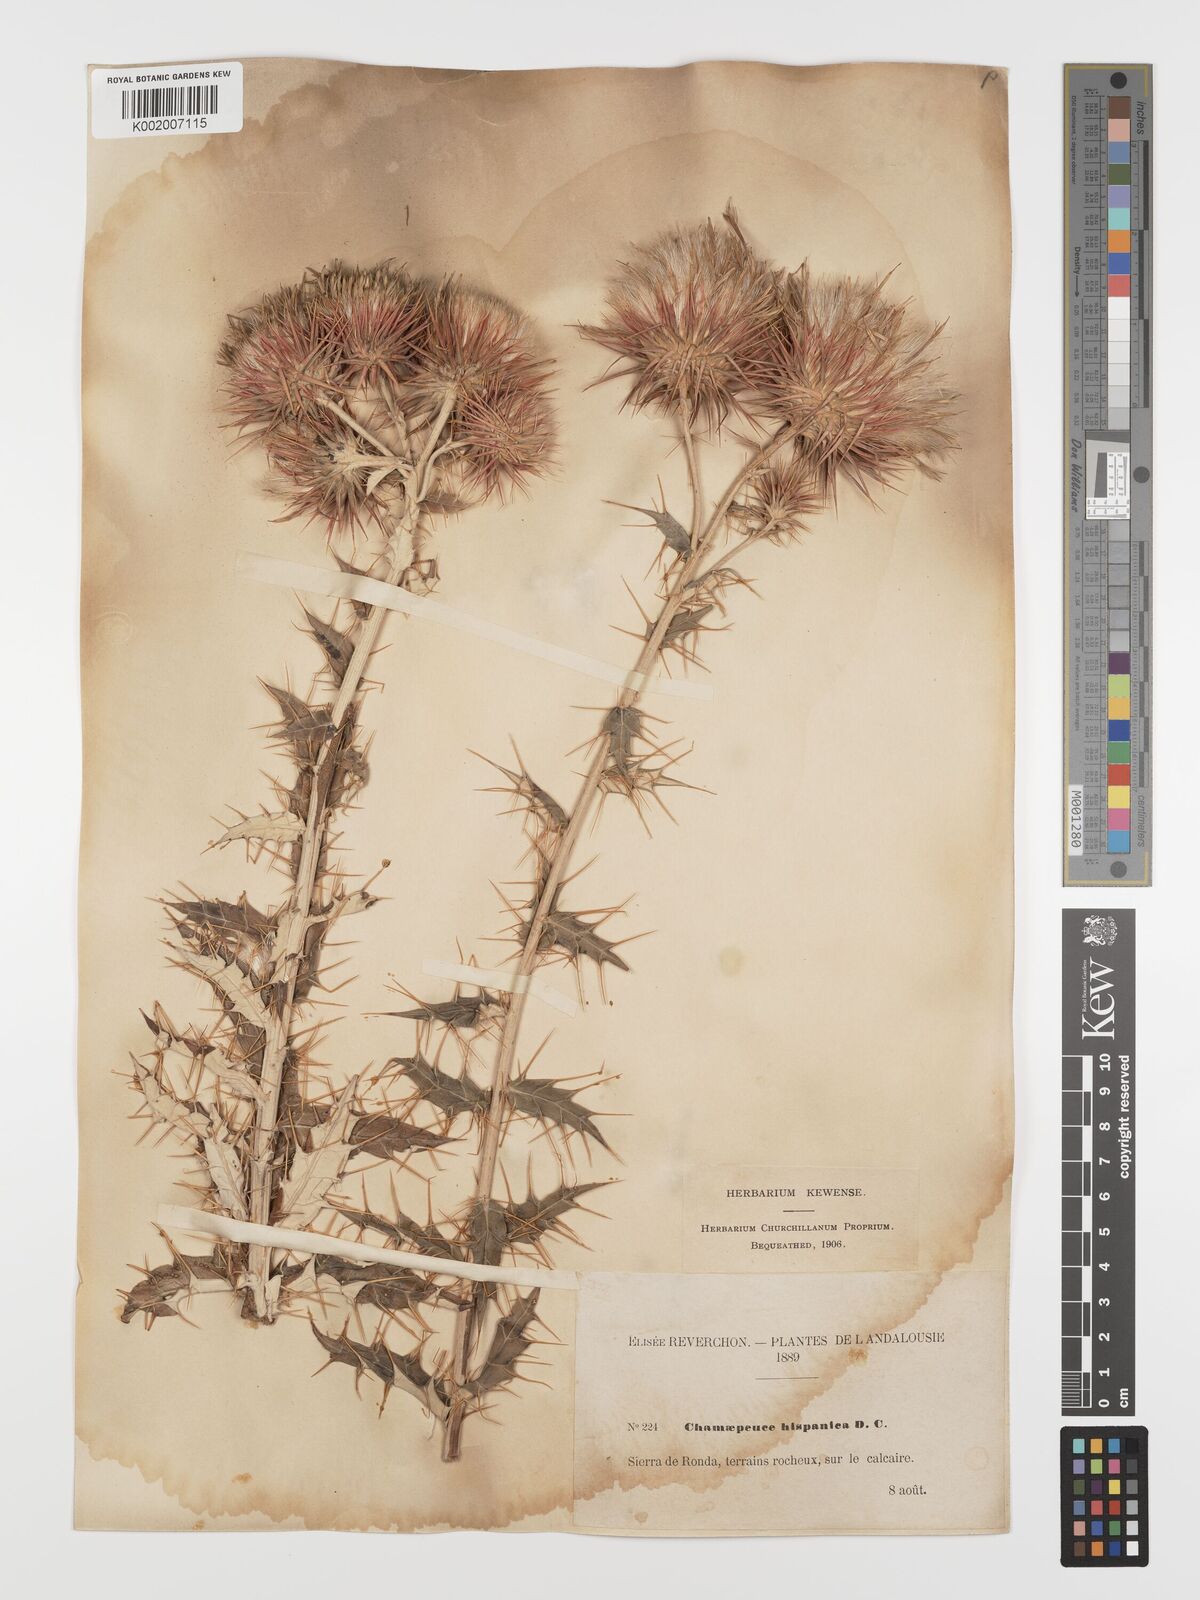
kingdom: Plantae
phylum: Tracheophyta
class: Magnoliopsida
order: Asterales
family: Asteraceae
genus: Ptilostemon
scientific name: Ptilostemon hispanicus
